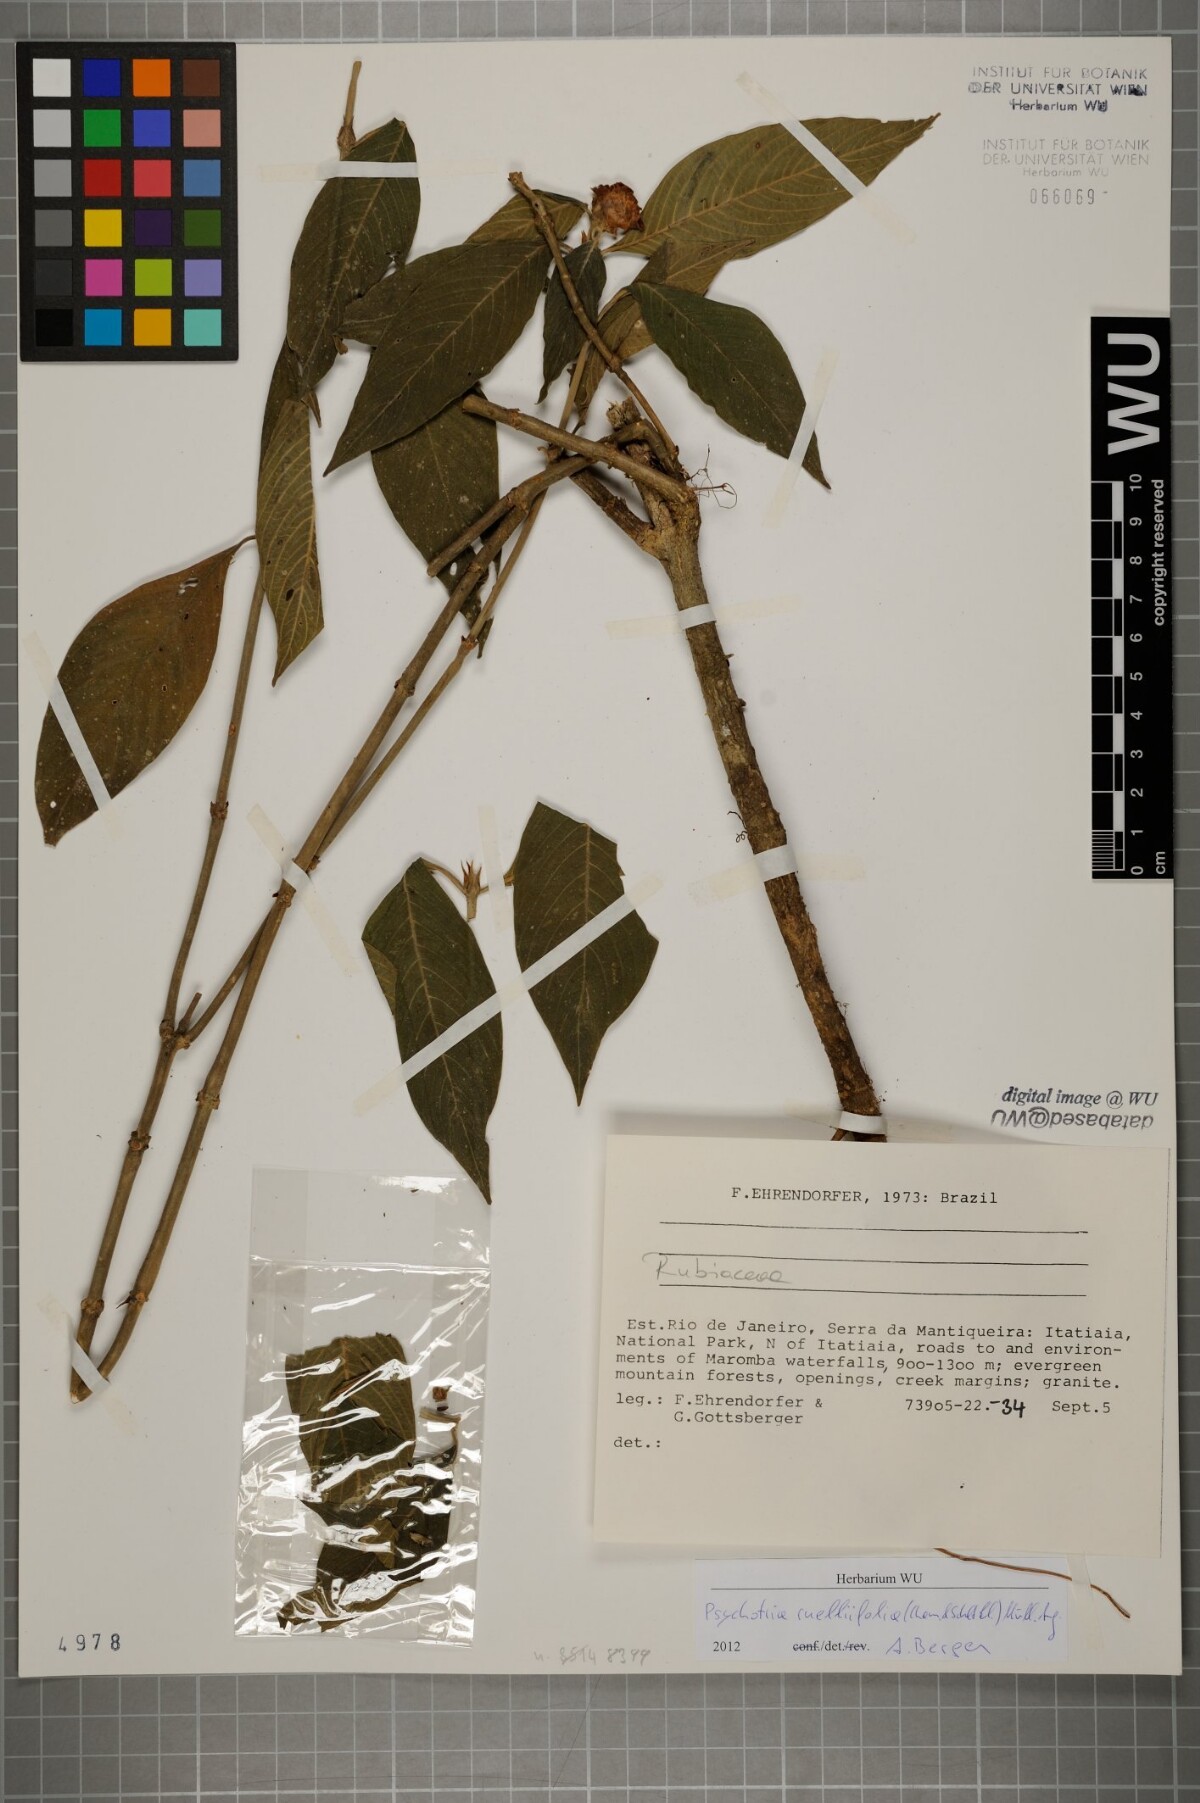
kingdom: Plantae
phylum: Tracheophyta
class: Magnoliopsida
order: Gentianales
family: Rubiaceae
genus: Palicourea
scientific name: Palicourea ruelliifolia
